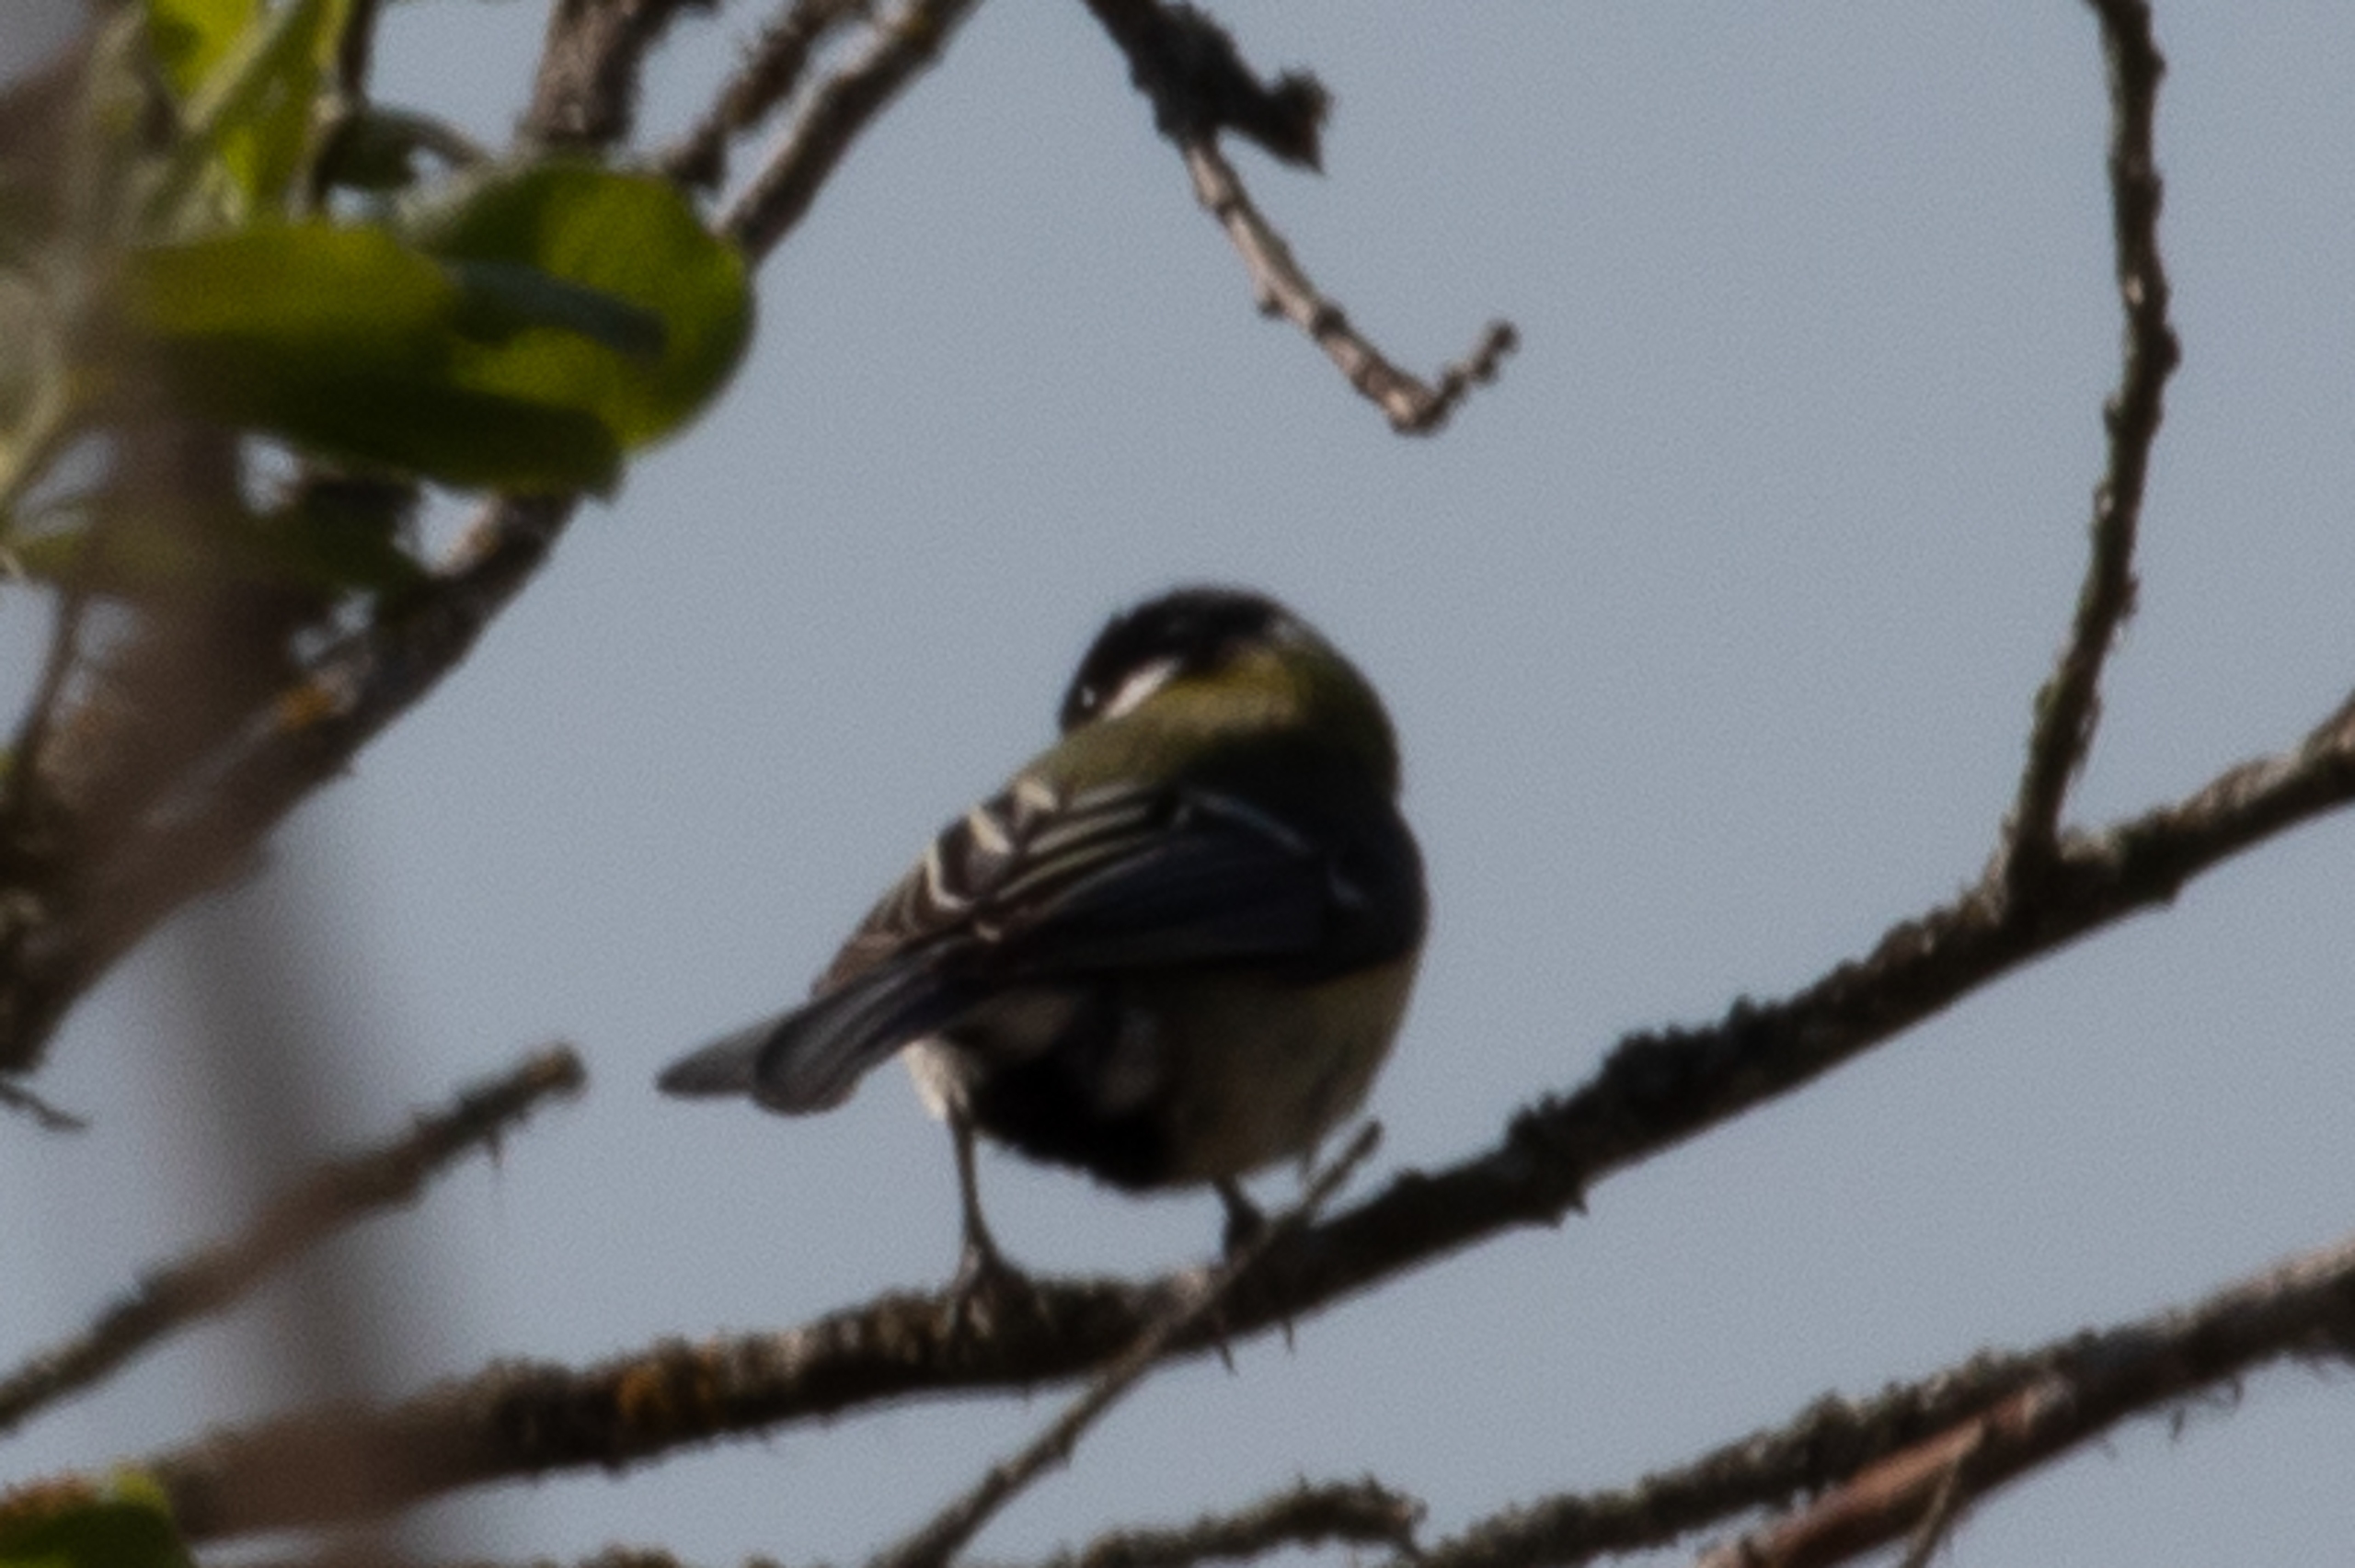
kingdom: Animalia
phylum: Chordata
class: Aves
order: Passeriformes
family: Paridae
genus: Parus
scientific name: Parus major
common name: Musvit
